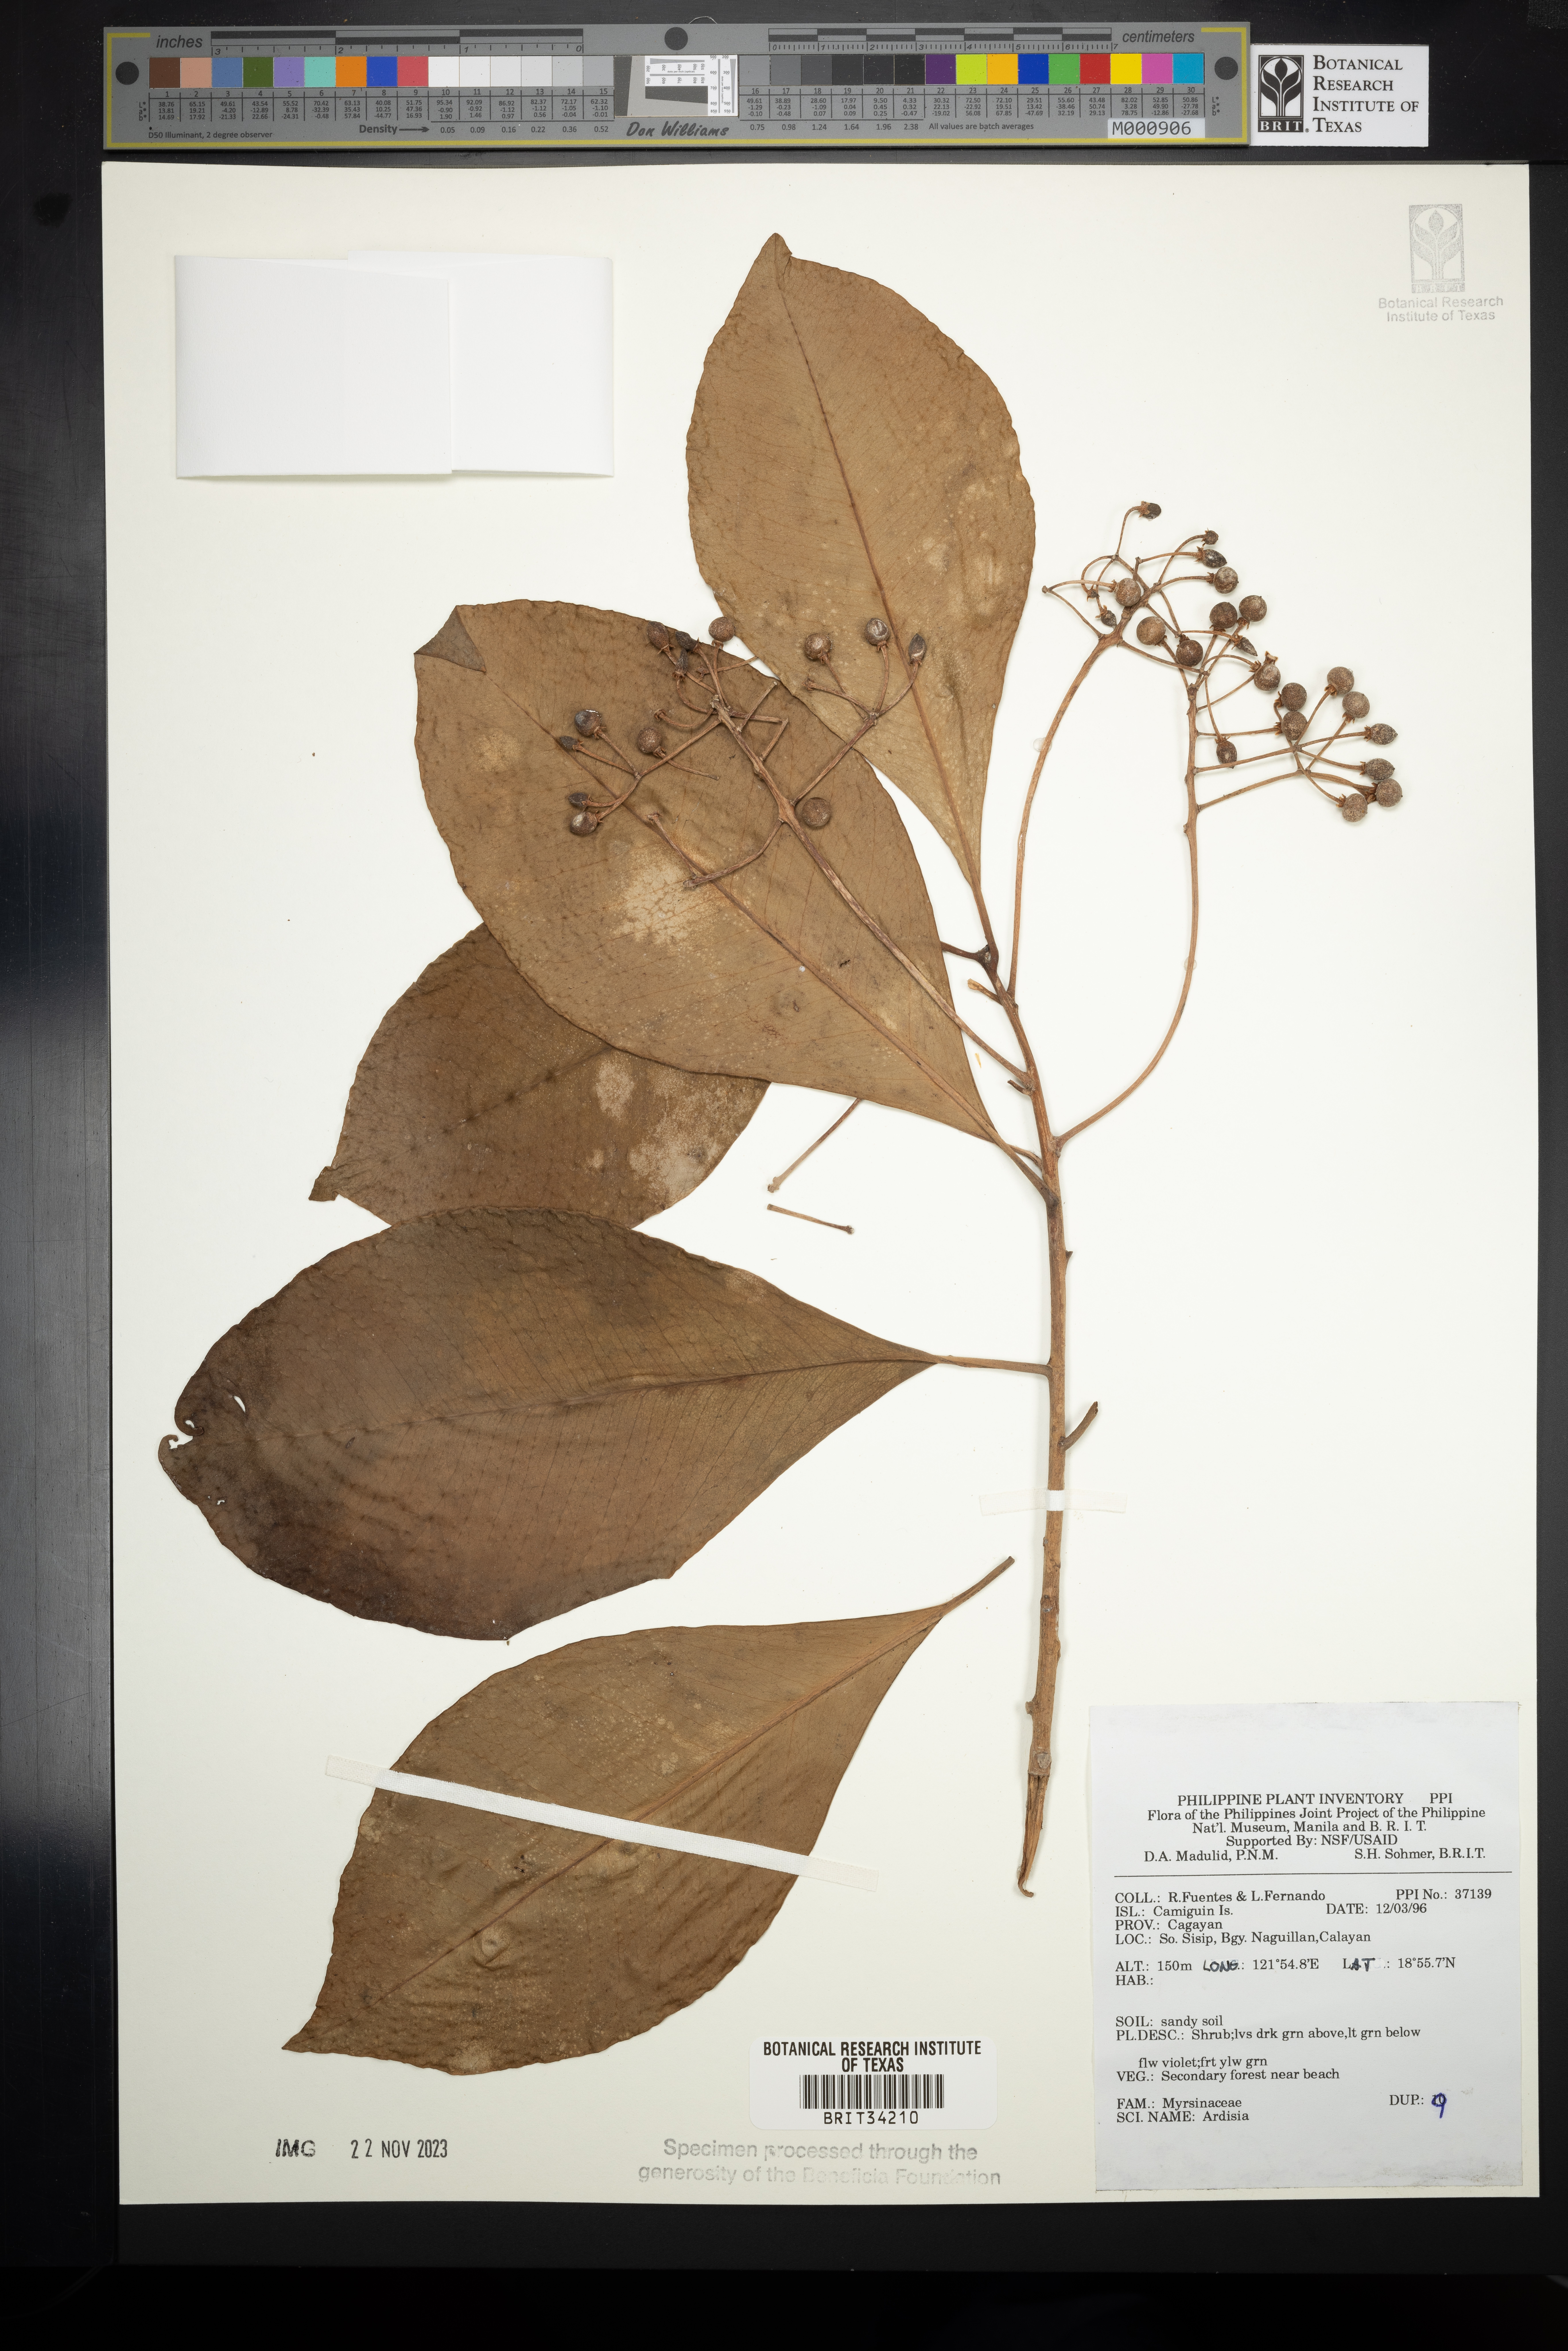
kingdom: Plantae
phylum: Tracheophyta
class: Magnoliopsida
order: Ericales
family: Primulaceae
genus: Ardisia
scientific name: Ardisia
